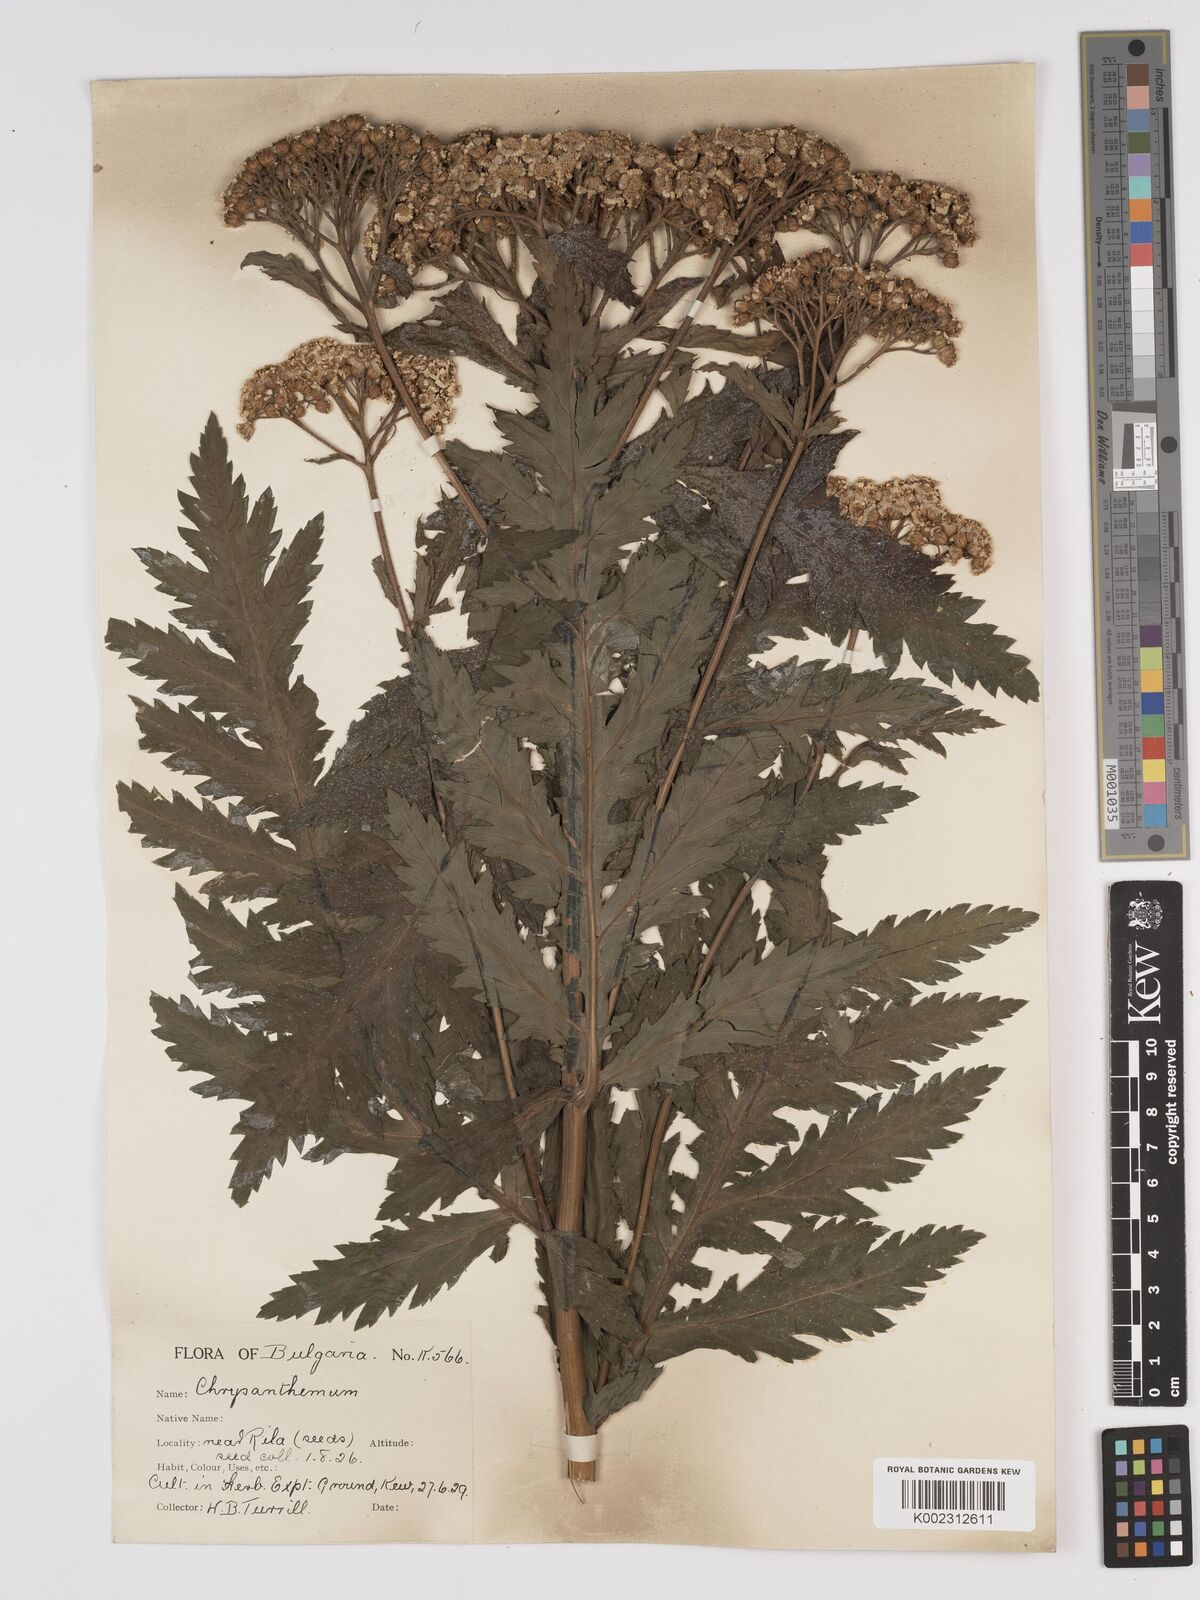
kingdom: Plantae
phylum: Tracheophyta
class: Magnoliopsida
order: Asterales
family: Asteraceae
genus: Tanacetum
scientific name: Tanacetum macrophyllum
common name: Rayed tansy
